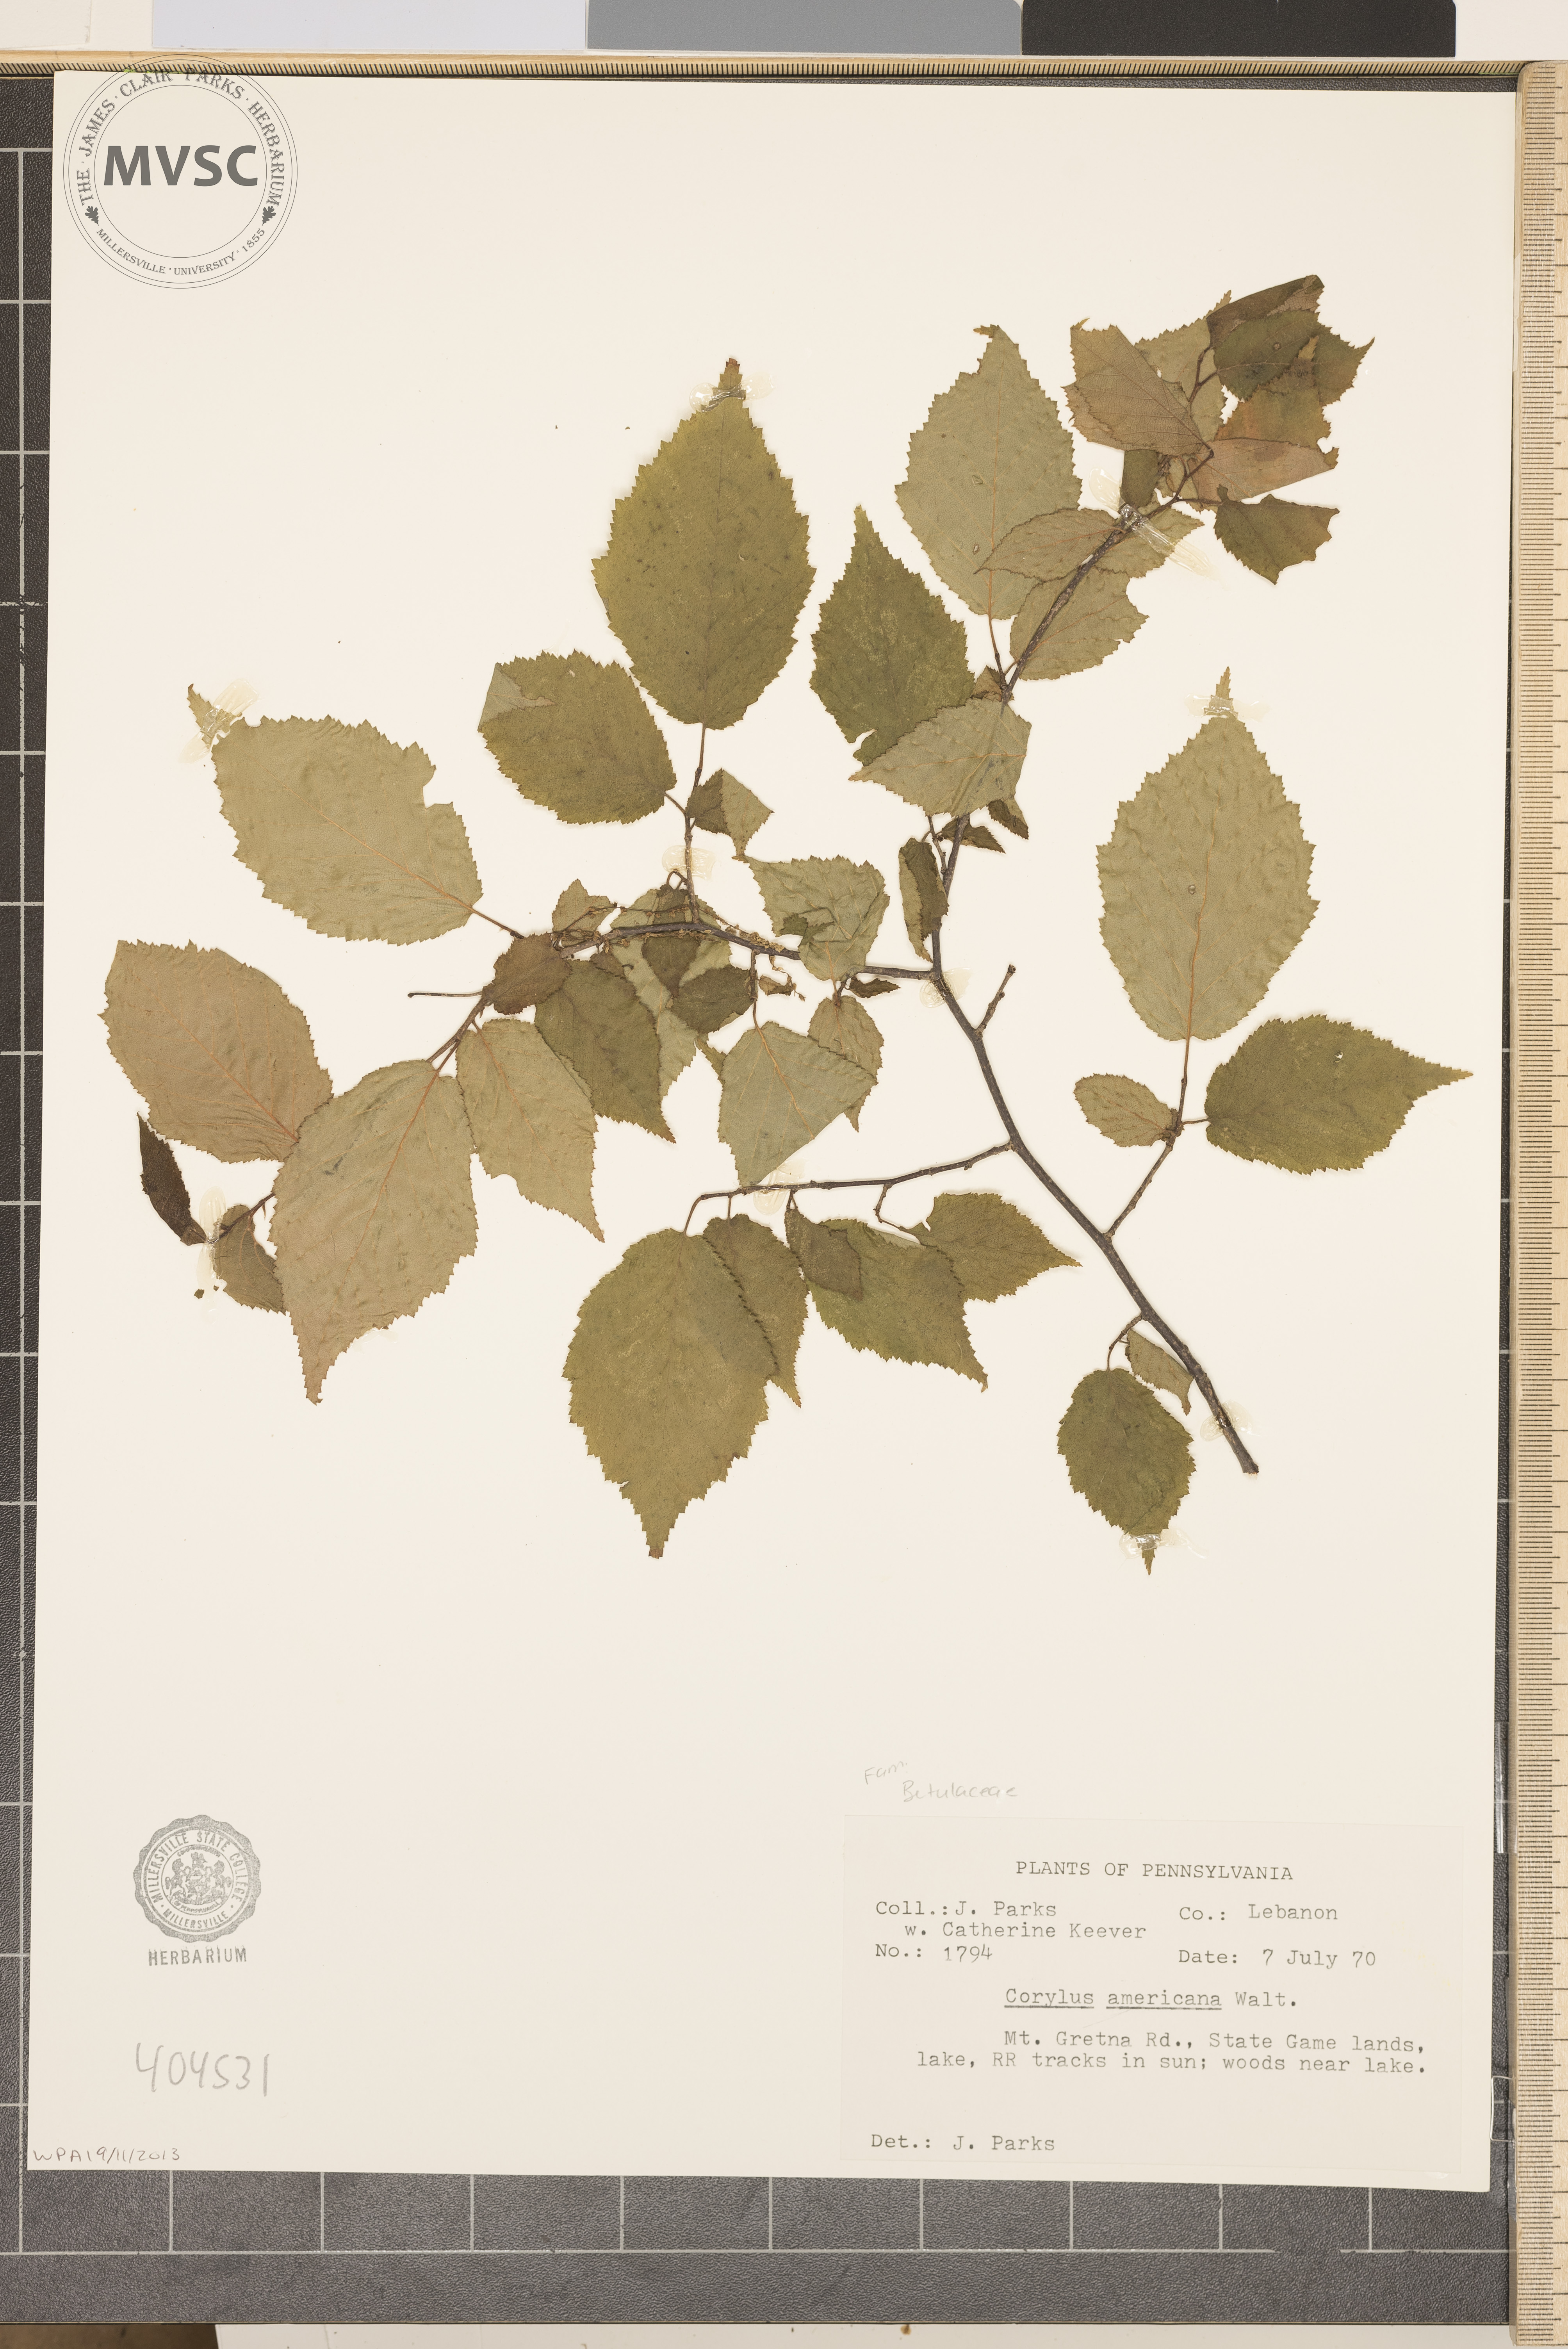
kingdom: Plantae
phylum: Tracheophyta
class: Magnoliopsida
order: Fagales
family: Betulaceae
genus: Corylus
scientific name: Corylus americana
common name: American hazel
